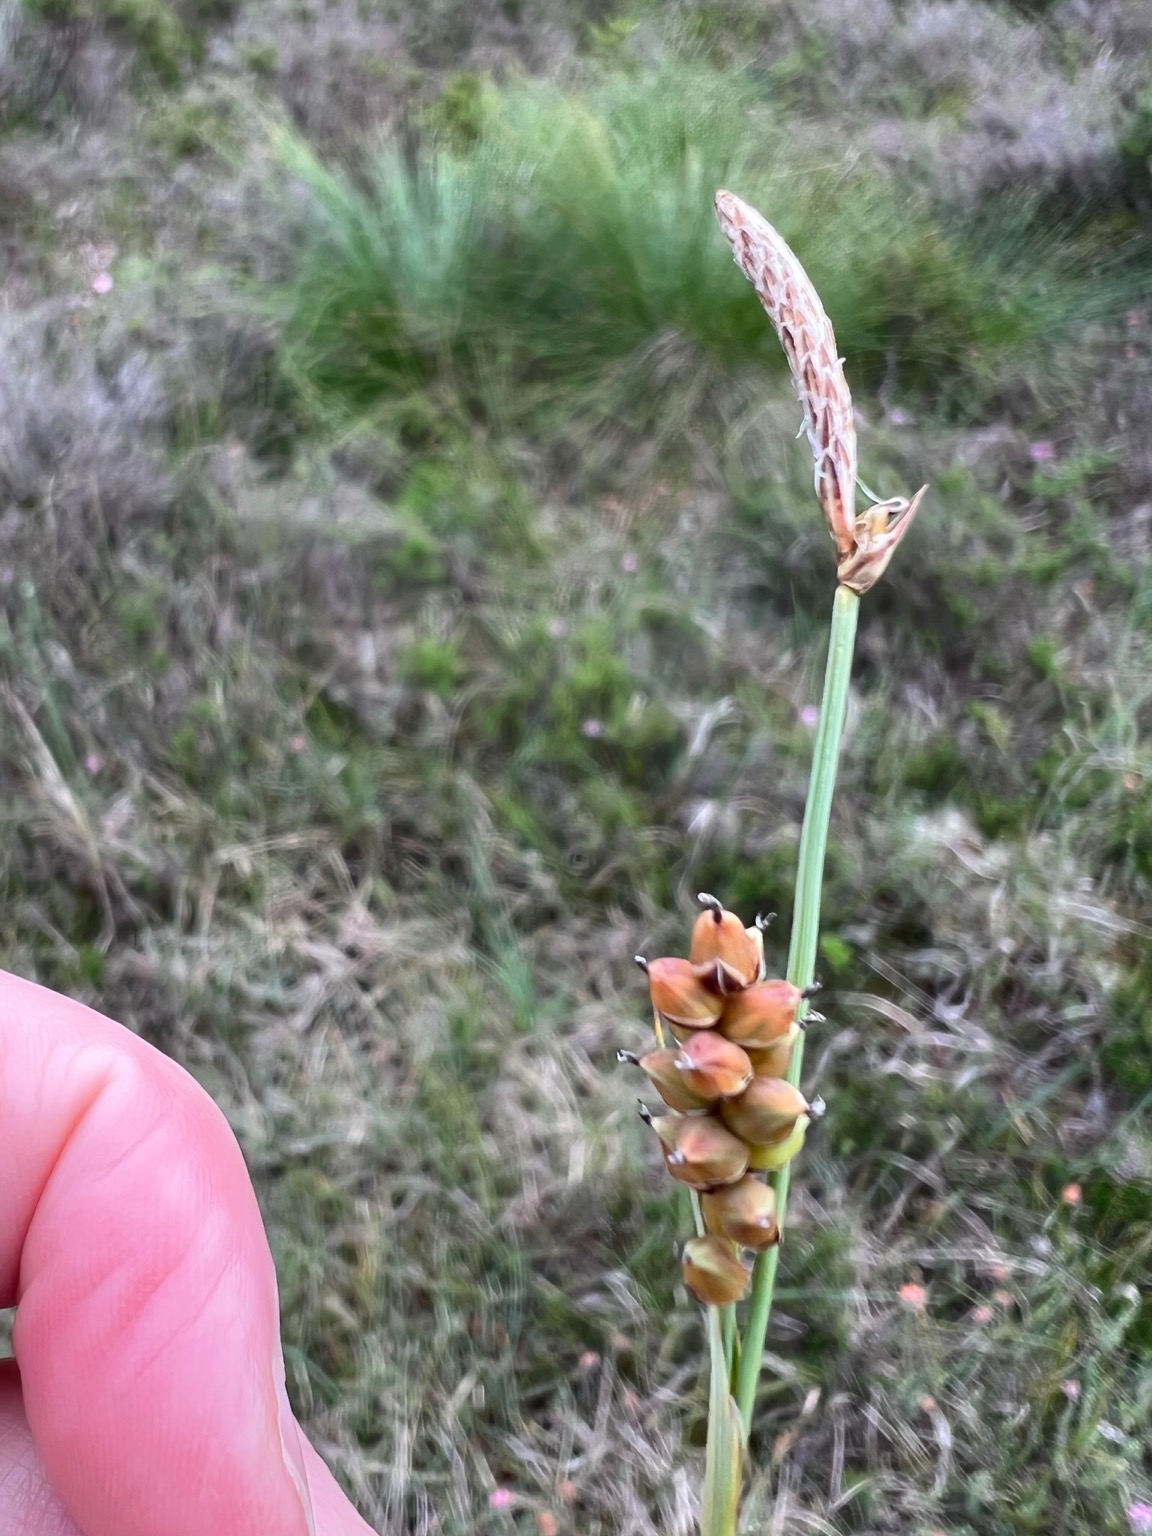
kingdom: Plantae
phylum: Tracheophyta
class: Liliopsida
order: Poales
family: Cyperaceae
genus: Carex
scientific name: Carex panicea
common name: Hirse-star
